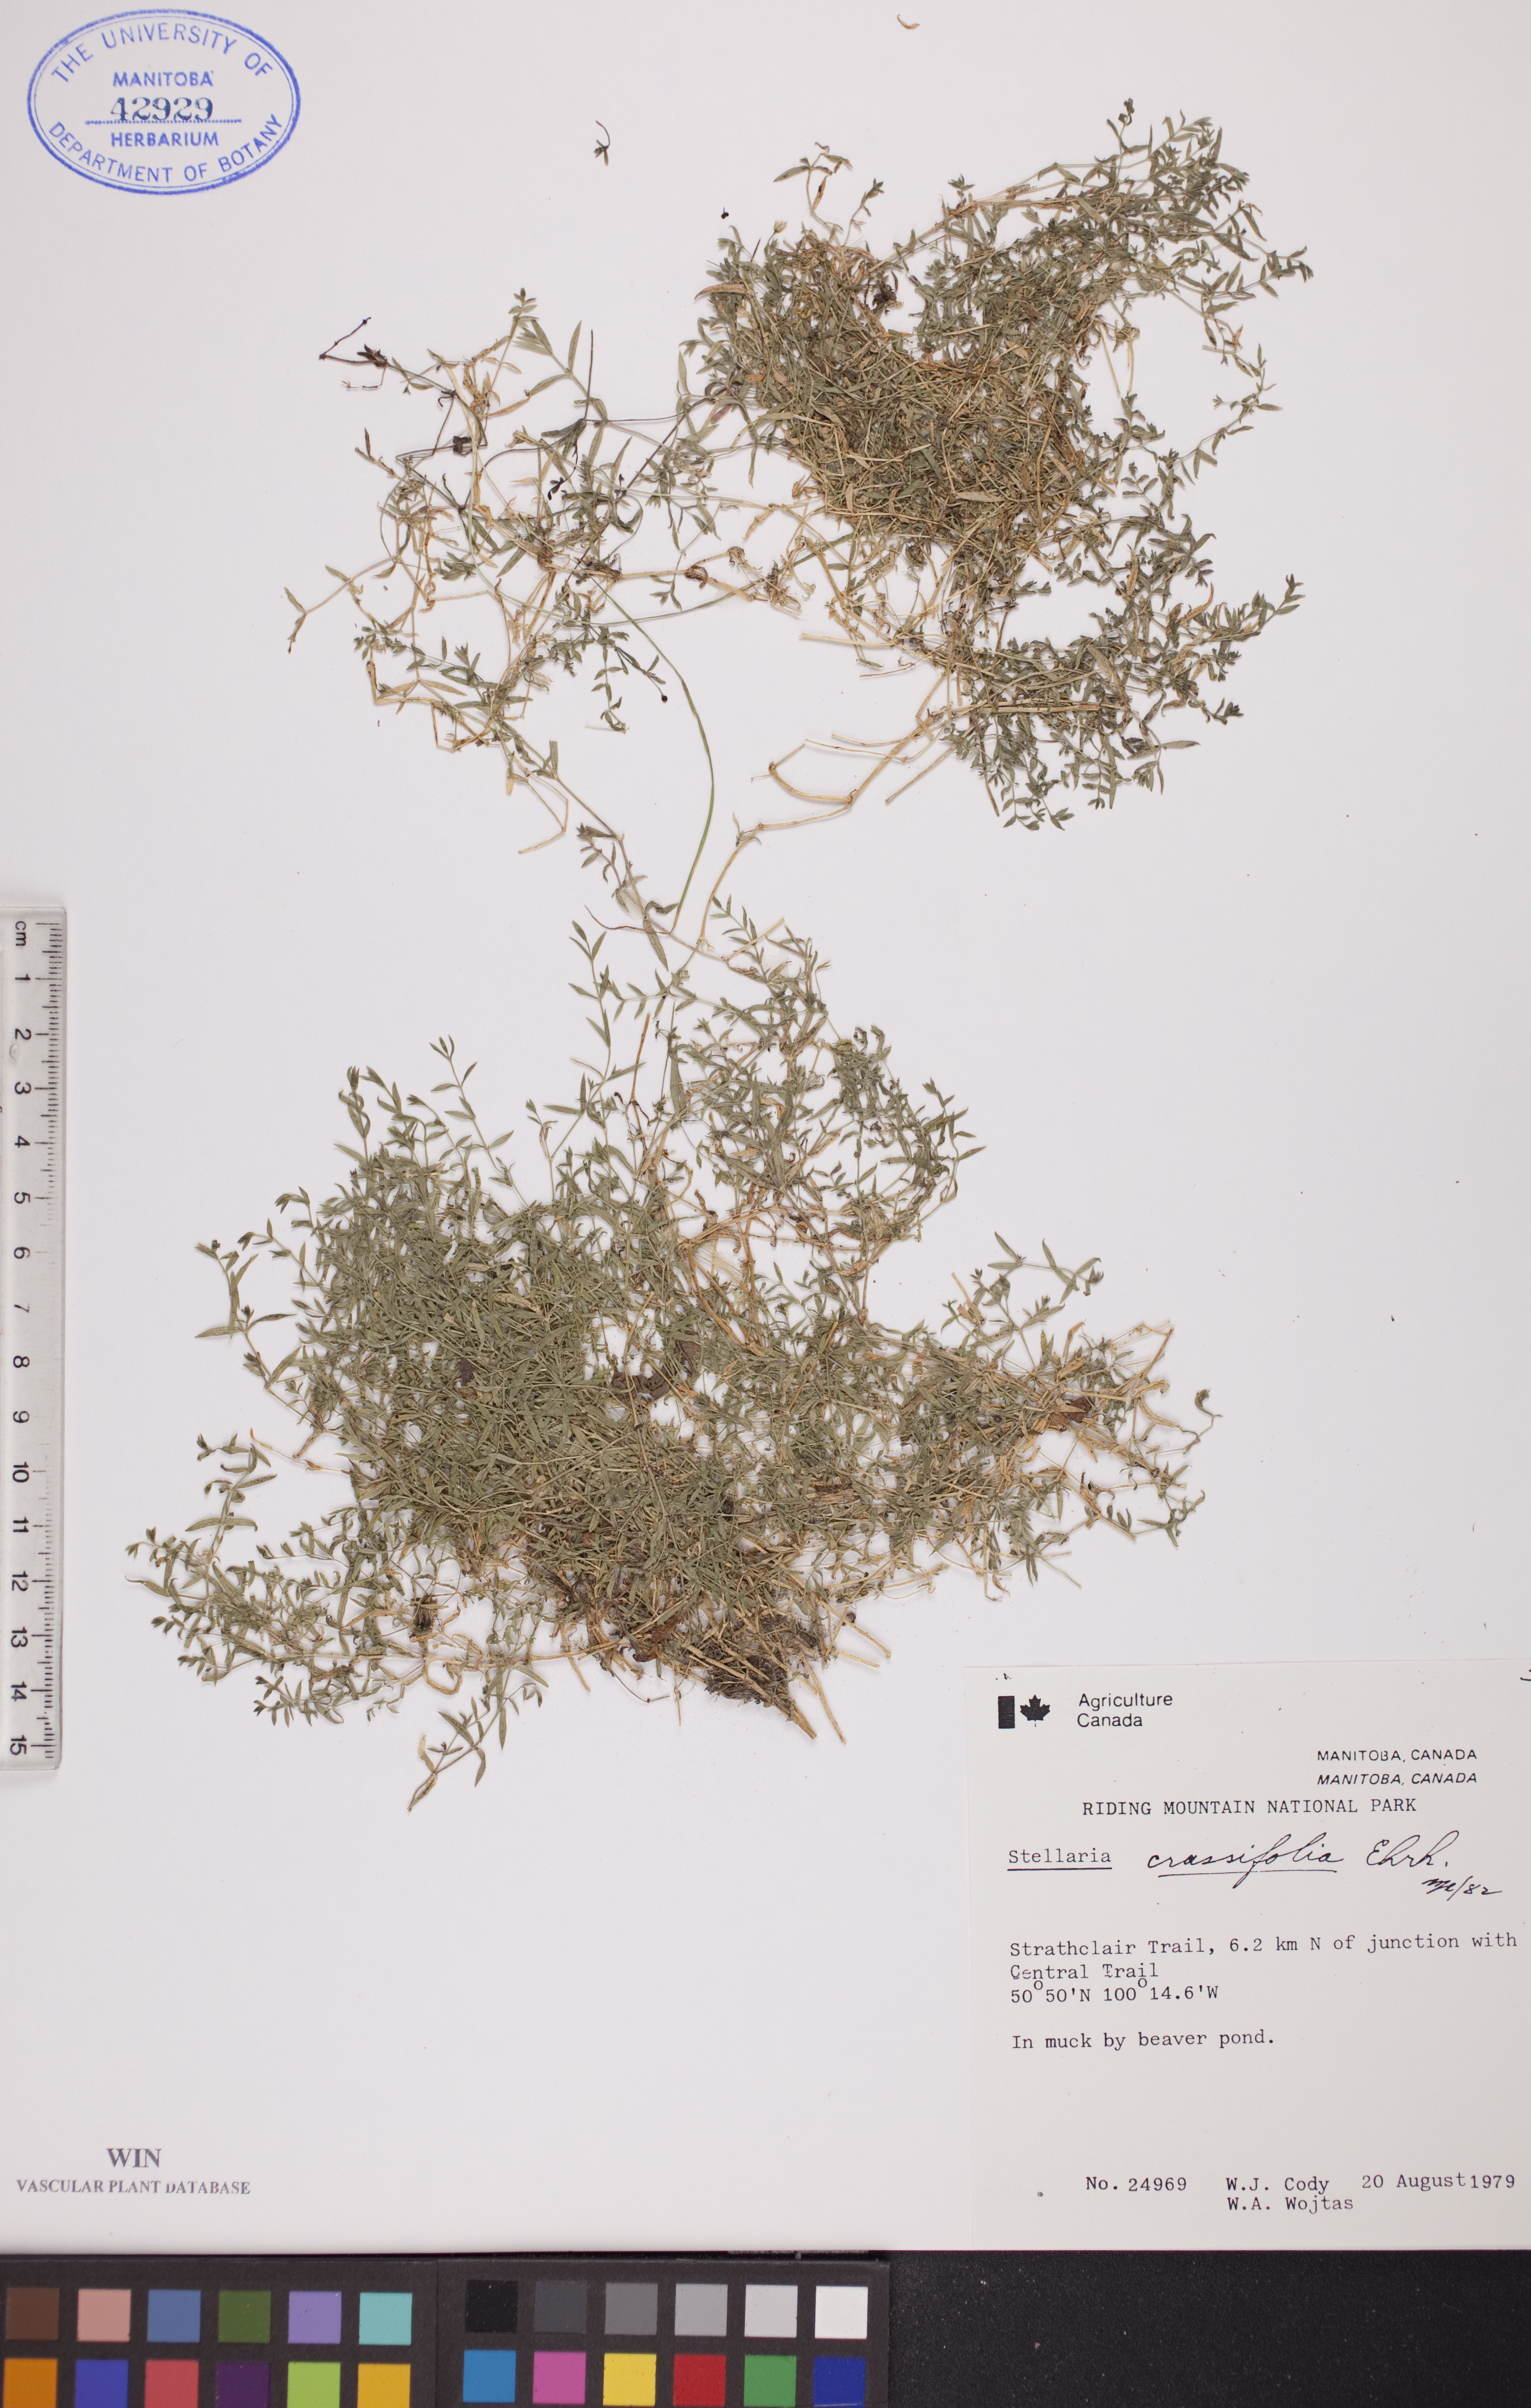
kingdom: Plantae
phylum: Tracheophyta
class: Magnoliopsida
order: Caryophyllales
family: Caryophyllaceae
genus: Stellaria
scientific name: Stellaria crassifolia
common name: Fleshy starwort
